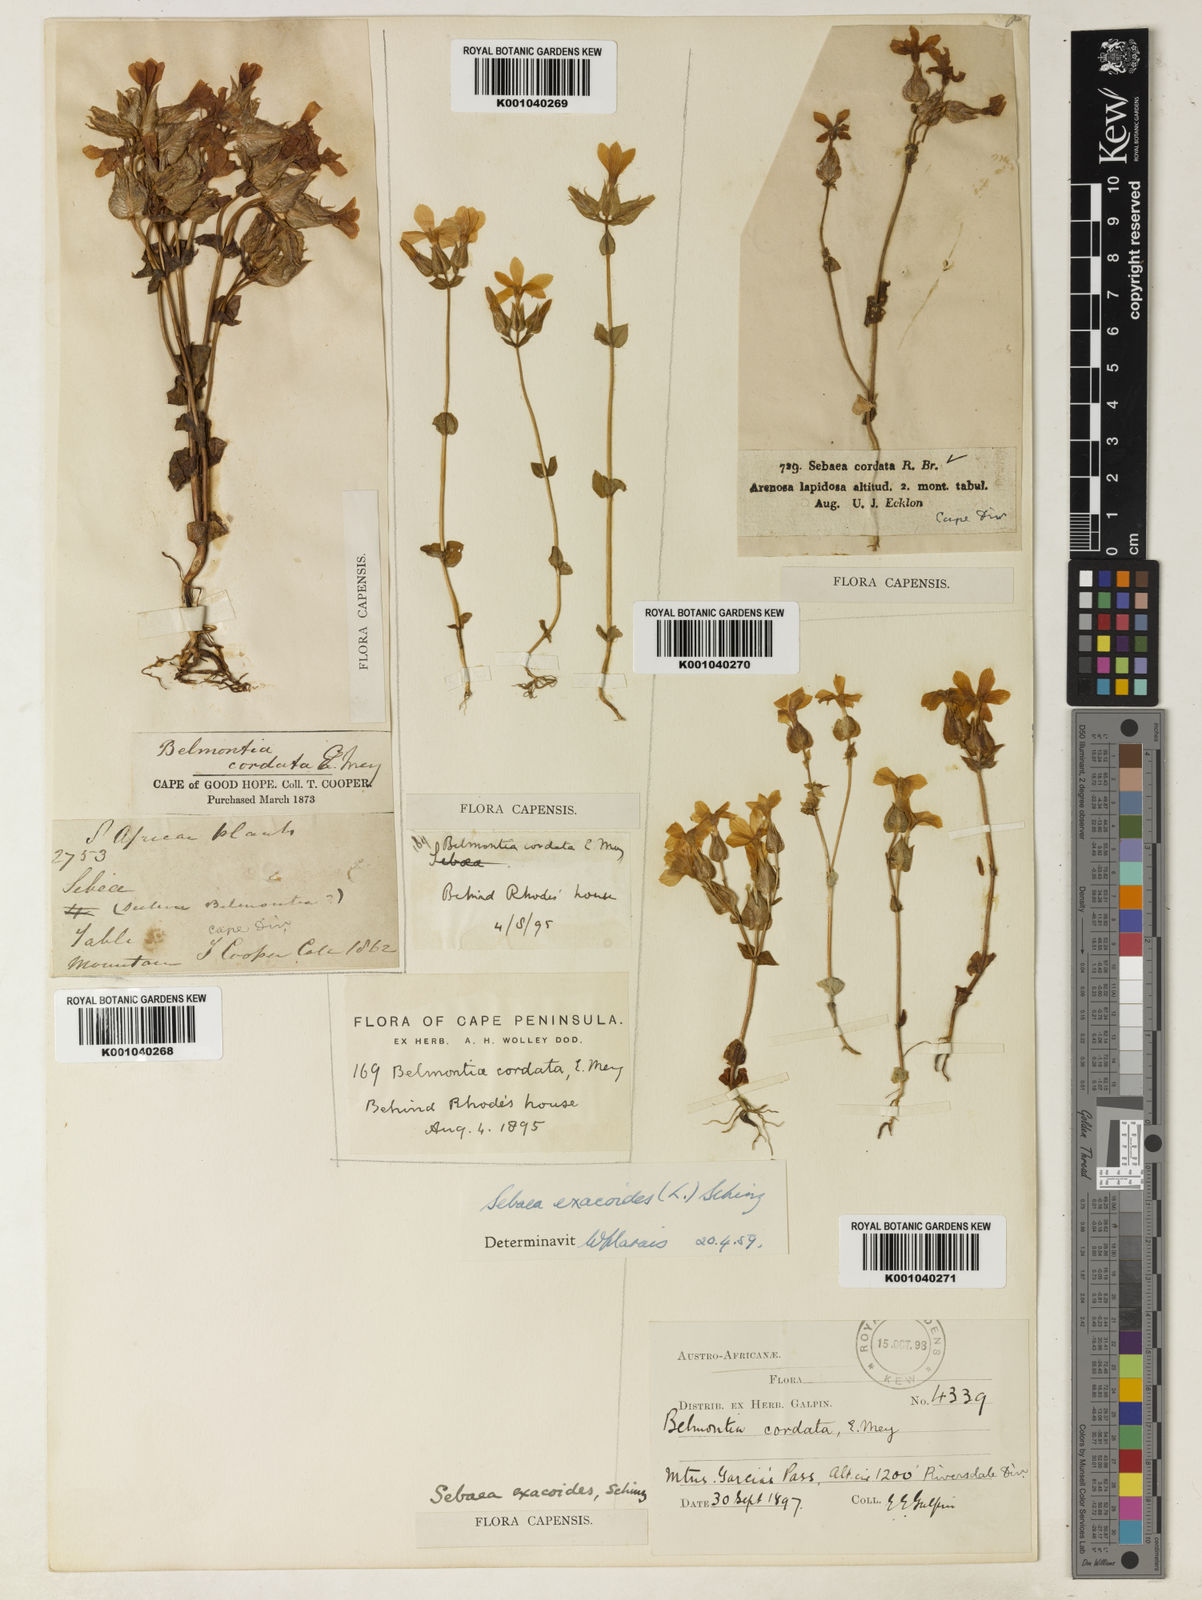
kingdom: Plantae
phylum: Tracheophyta
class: Magnoliopsida
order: Gentianales
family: Gentianaceae
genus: Sebaea
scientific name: Sebaea exacoides
